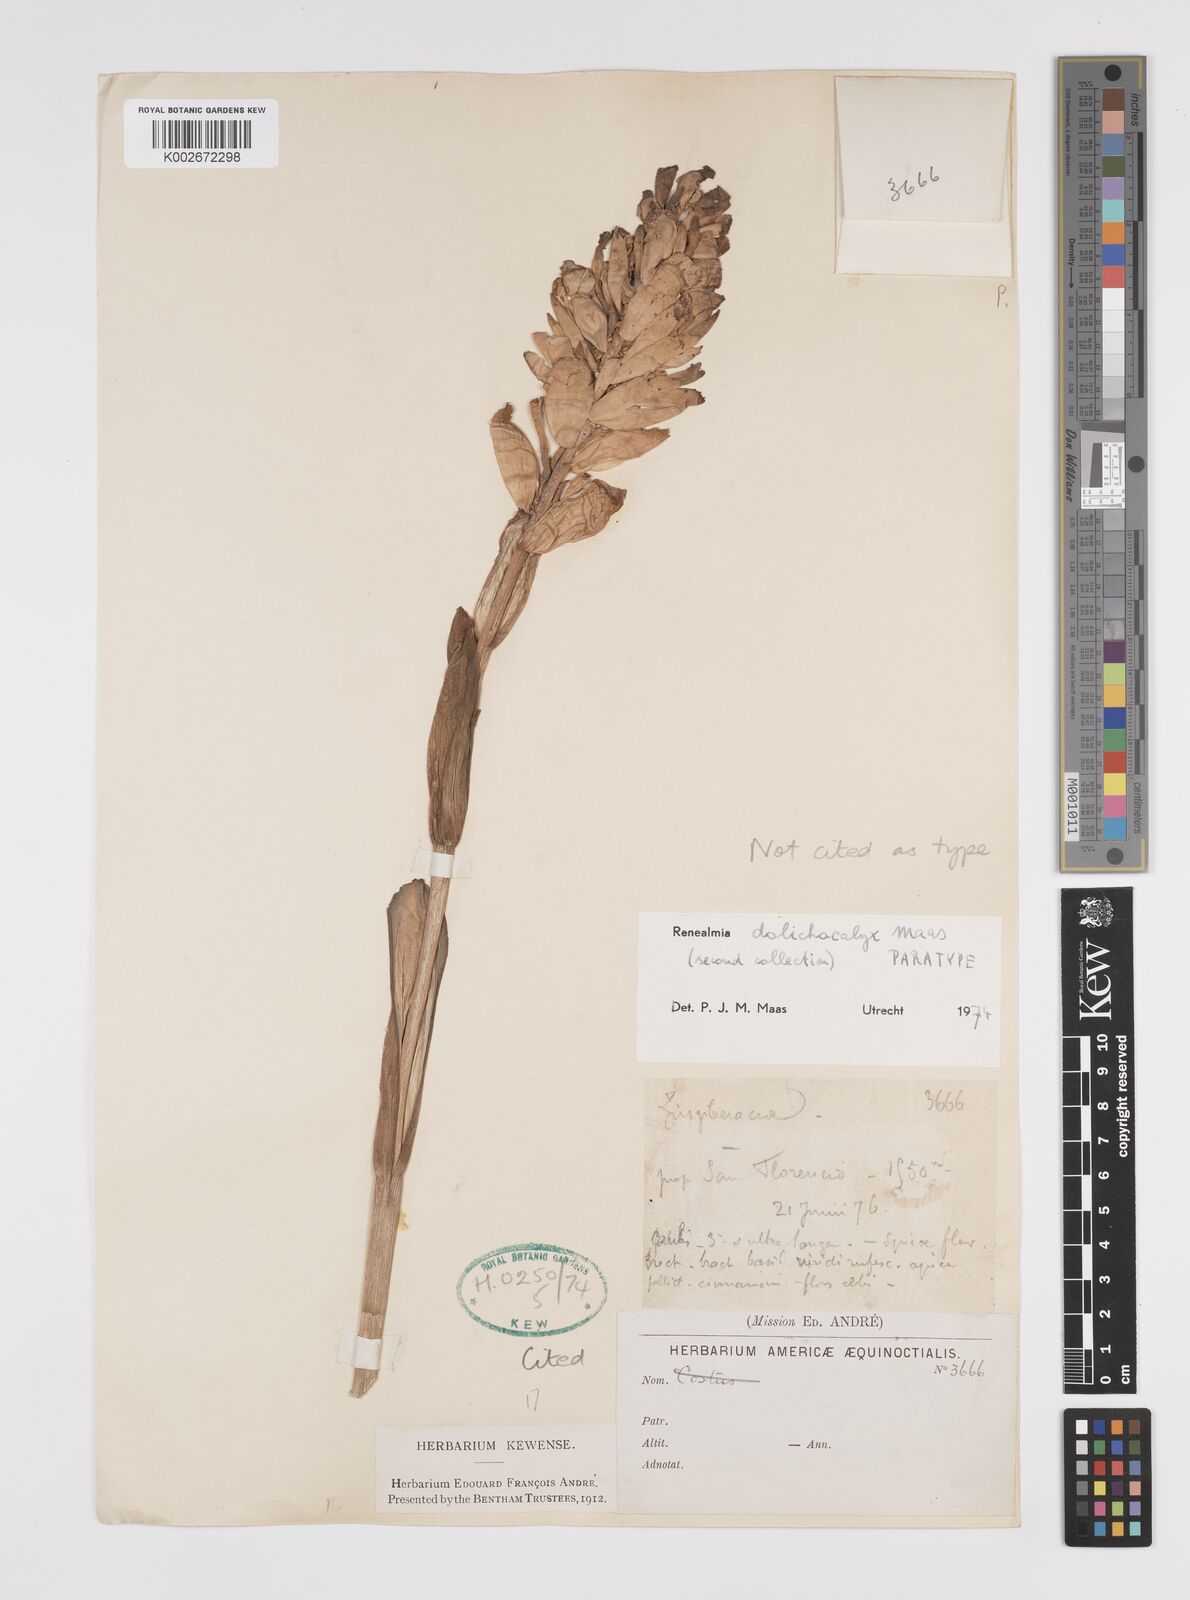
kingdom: Plantae
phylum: Tracheophyta
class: Liliopsida
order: Zingiberales
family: Zingiberaceae
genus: Renealmia
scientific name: Renealmia dolichocalyx
